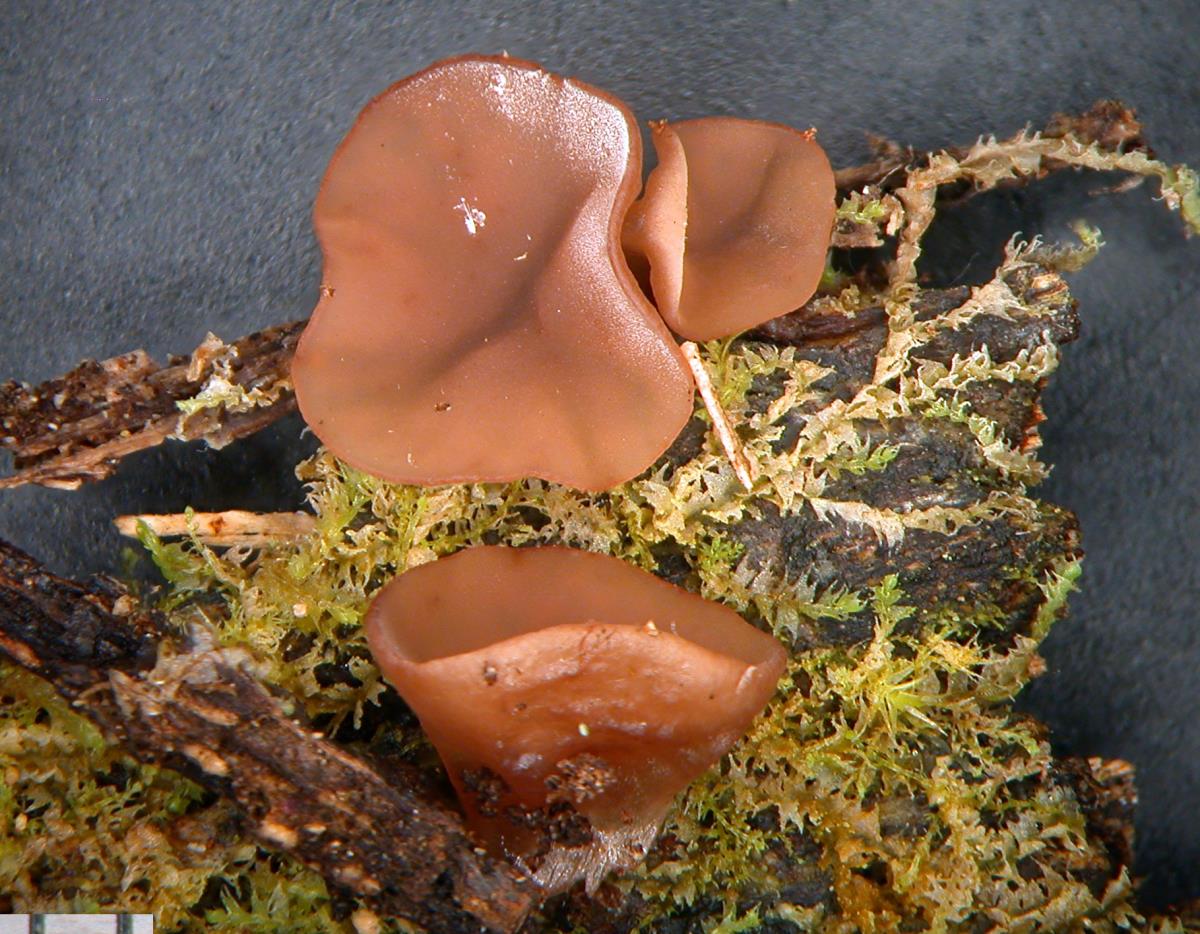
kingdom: Fungi
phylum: Ascomycota
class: Pezizomycetes
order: Pezizales
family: Pezizaceae
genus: Ruhlandiella
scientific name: Ruhlandiella
